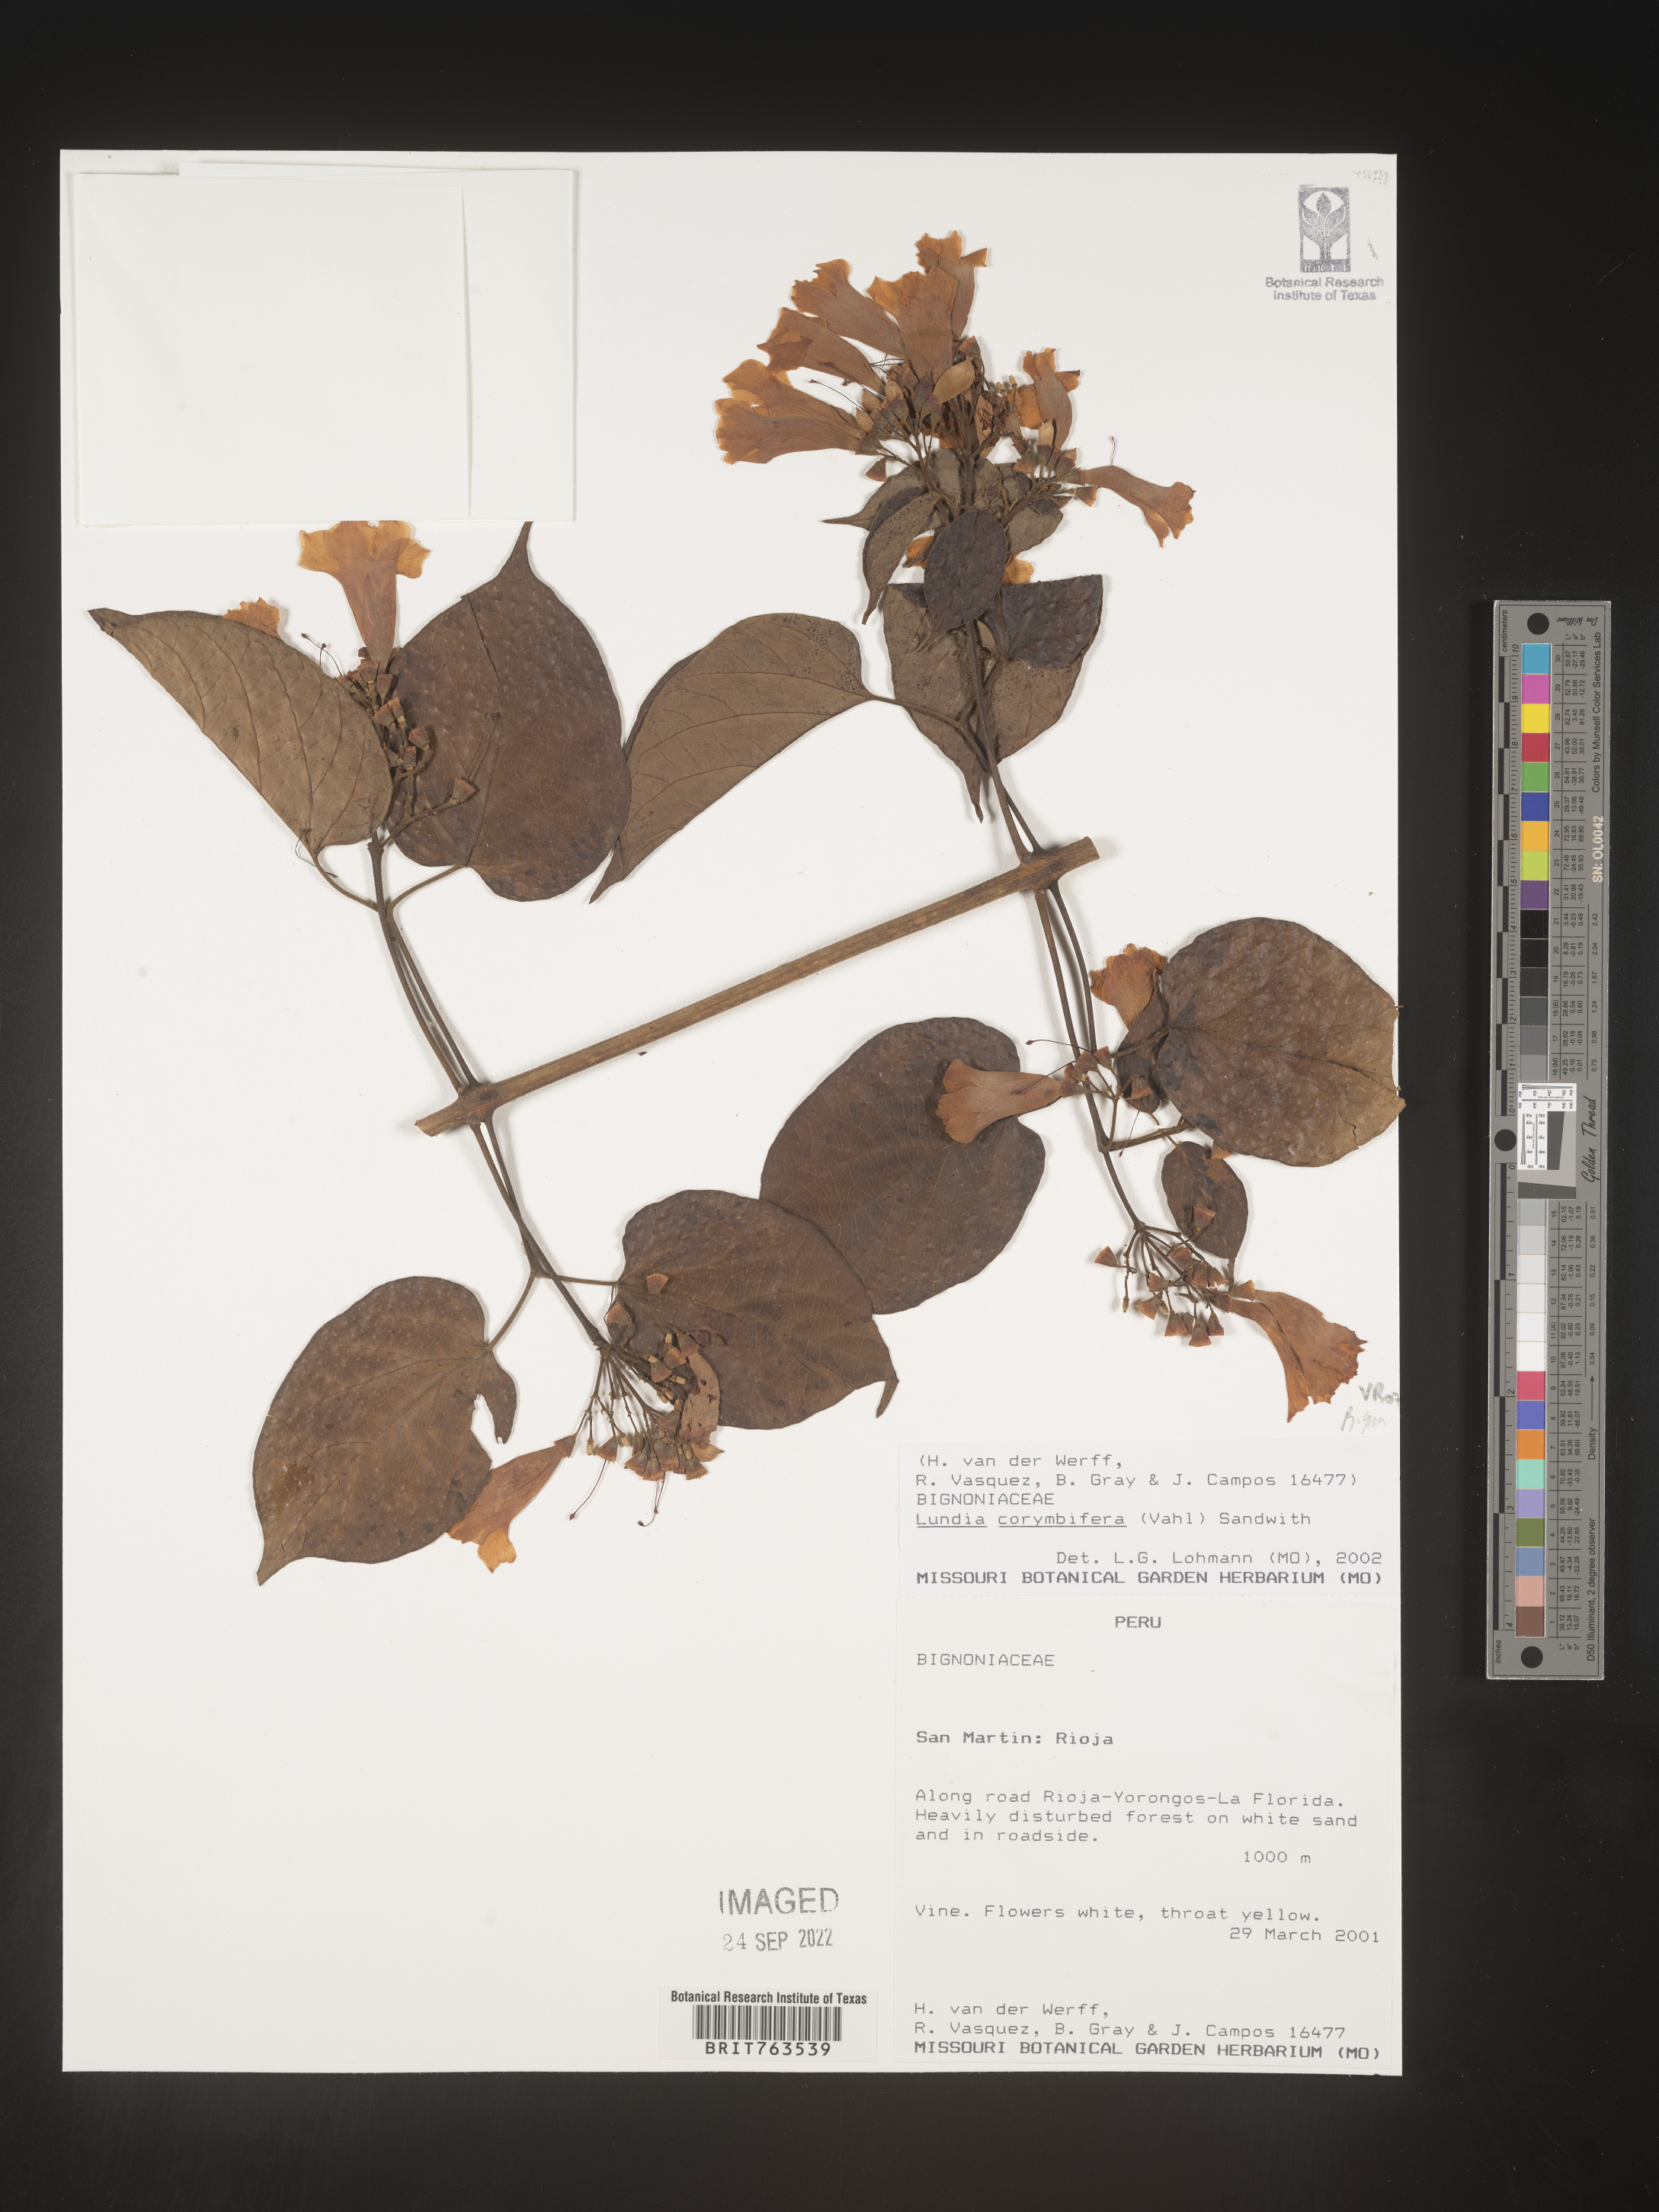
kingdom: Plantae
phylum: Tracheophyta
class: Magnoliopsida
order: Lamiales
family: Bignoniaceae
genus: Lundia
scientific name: Lundia
